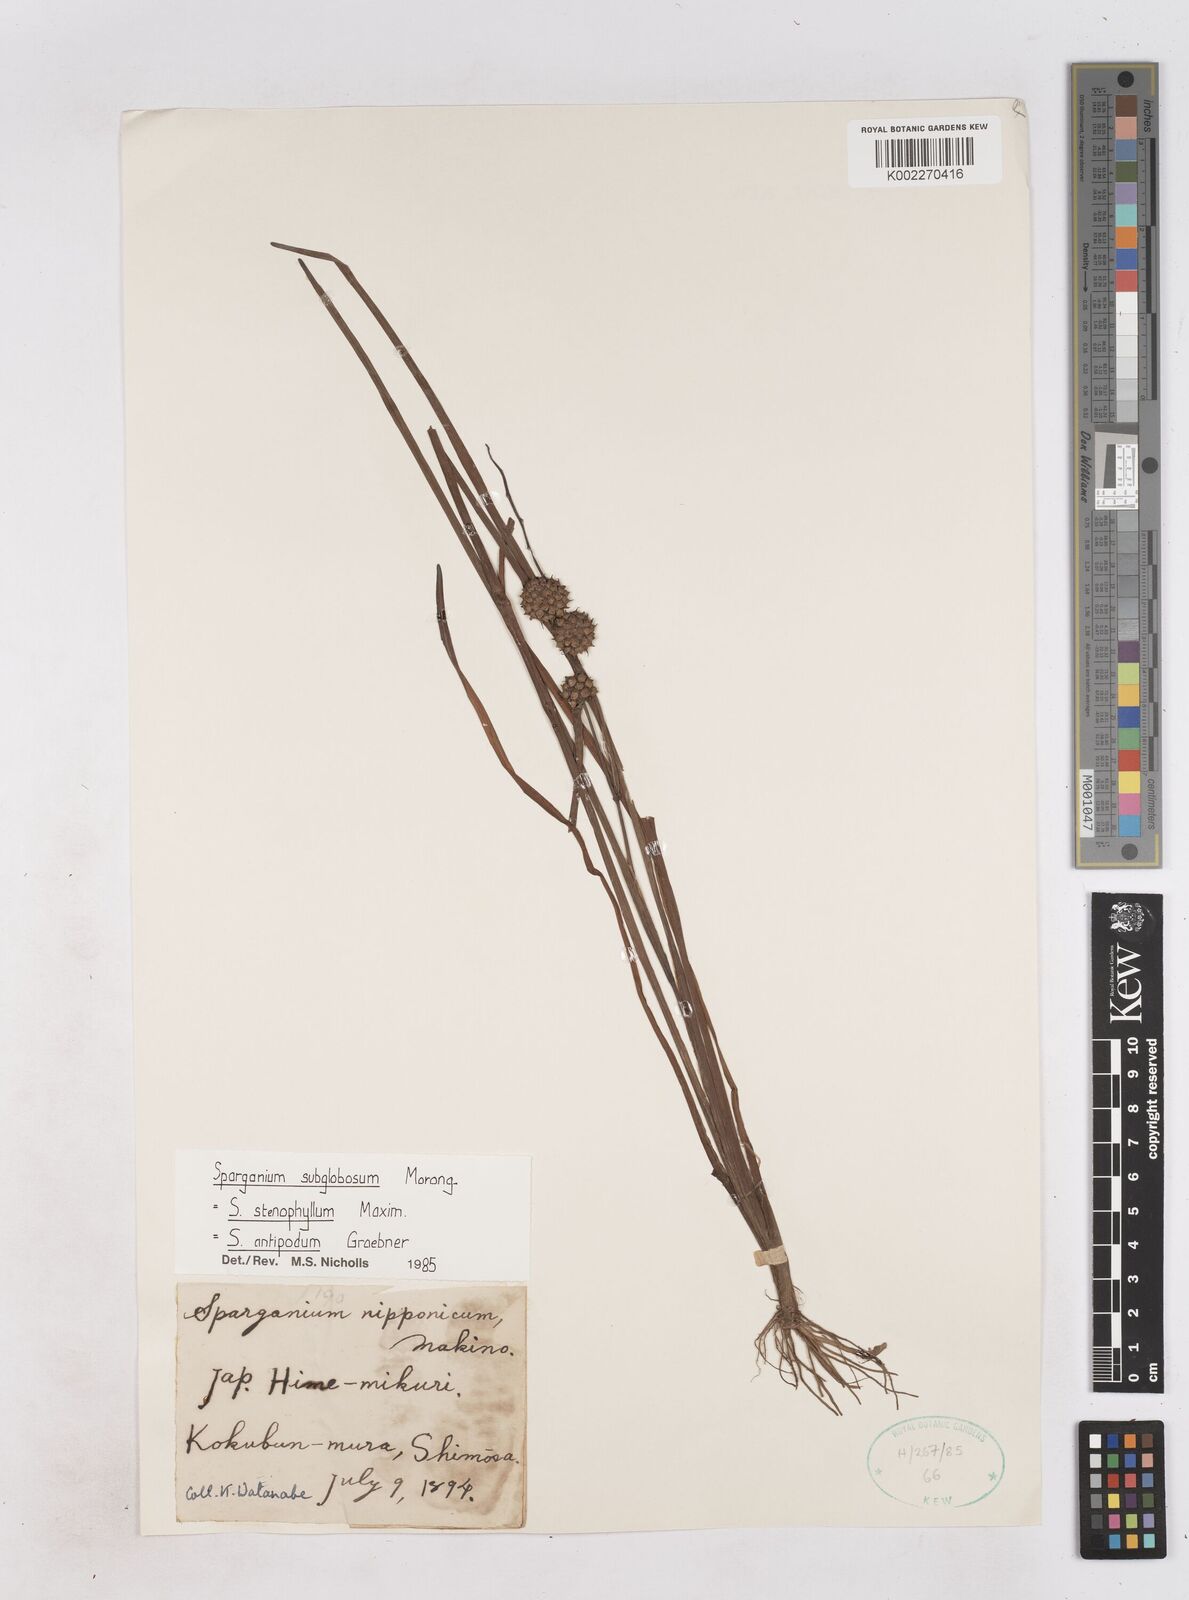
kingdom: Plantae
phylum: Tracheophyta
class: Liliopsida
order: Poales
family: Typhaceae
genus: Sparganium
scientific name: Sparganium subglobosum
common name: Burr­-reed
